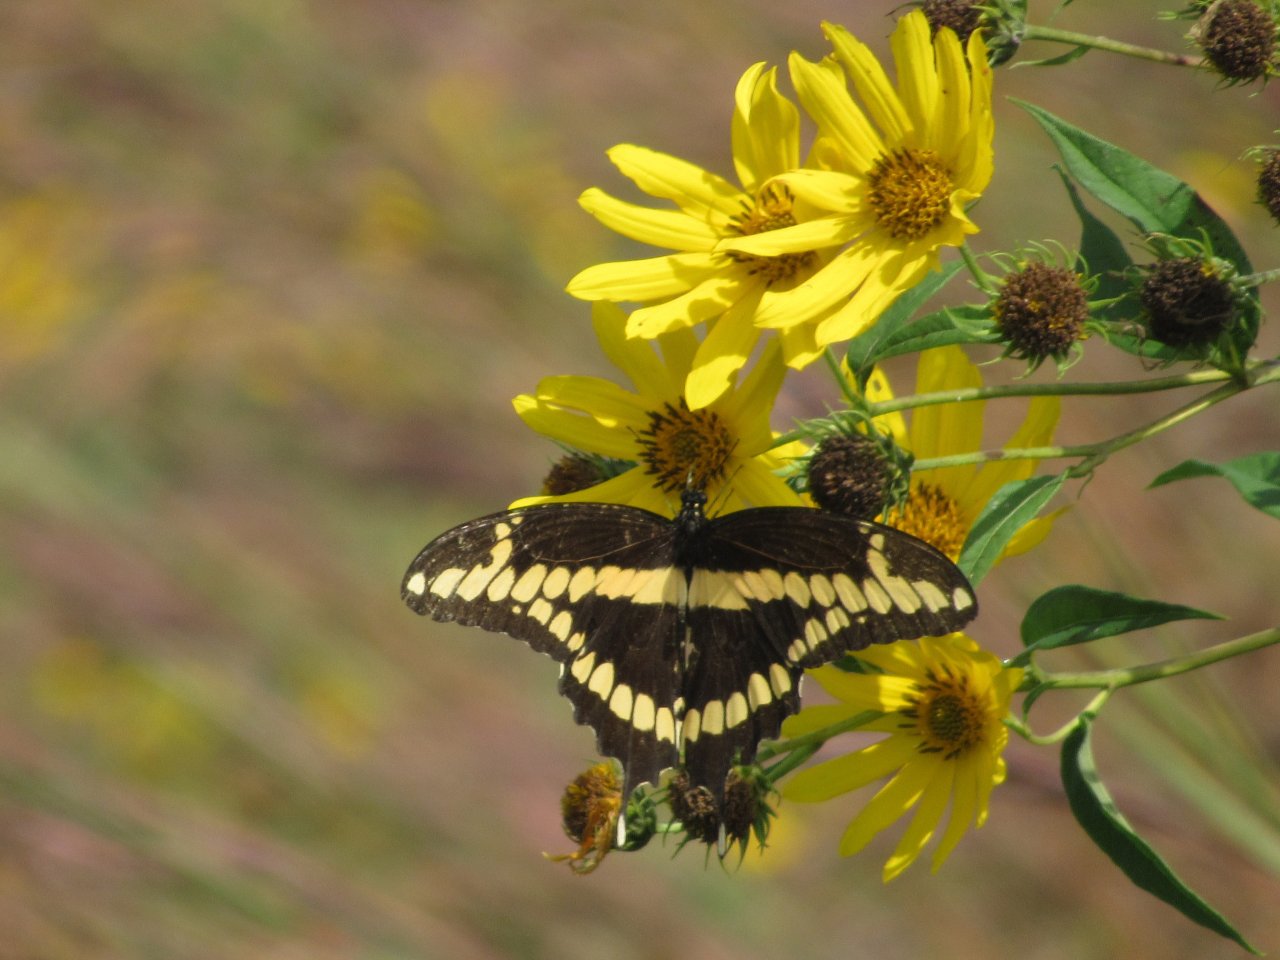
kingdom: Animalia
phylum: Arthropoda
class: Insecta
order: Lepidoptera
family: Papilionidae
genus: Papilio
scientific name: Papilio cresphontes
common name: Eastern Giant Swallowtail
